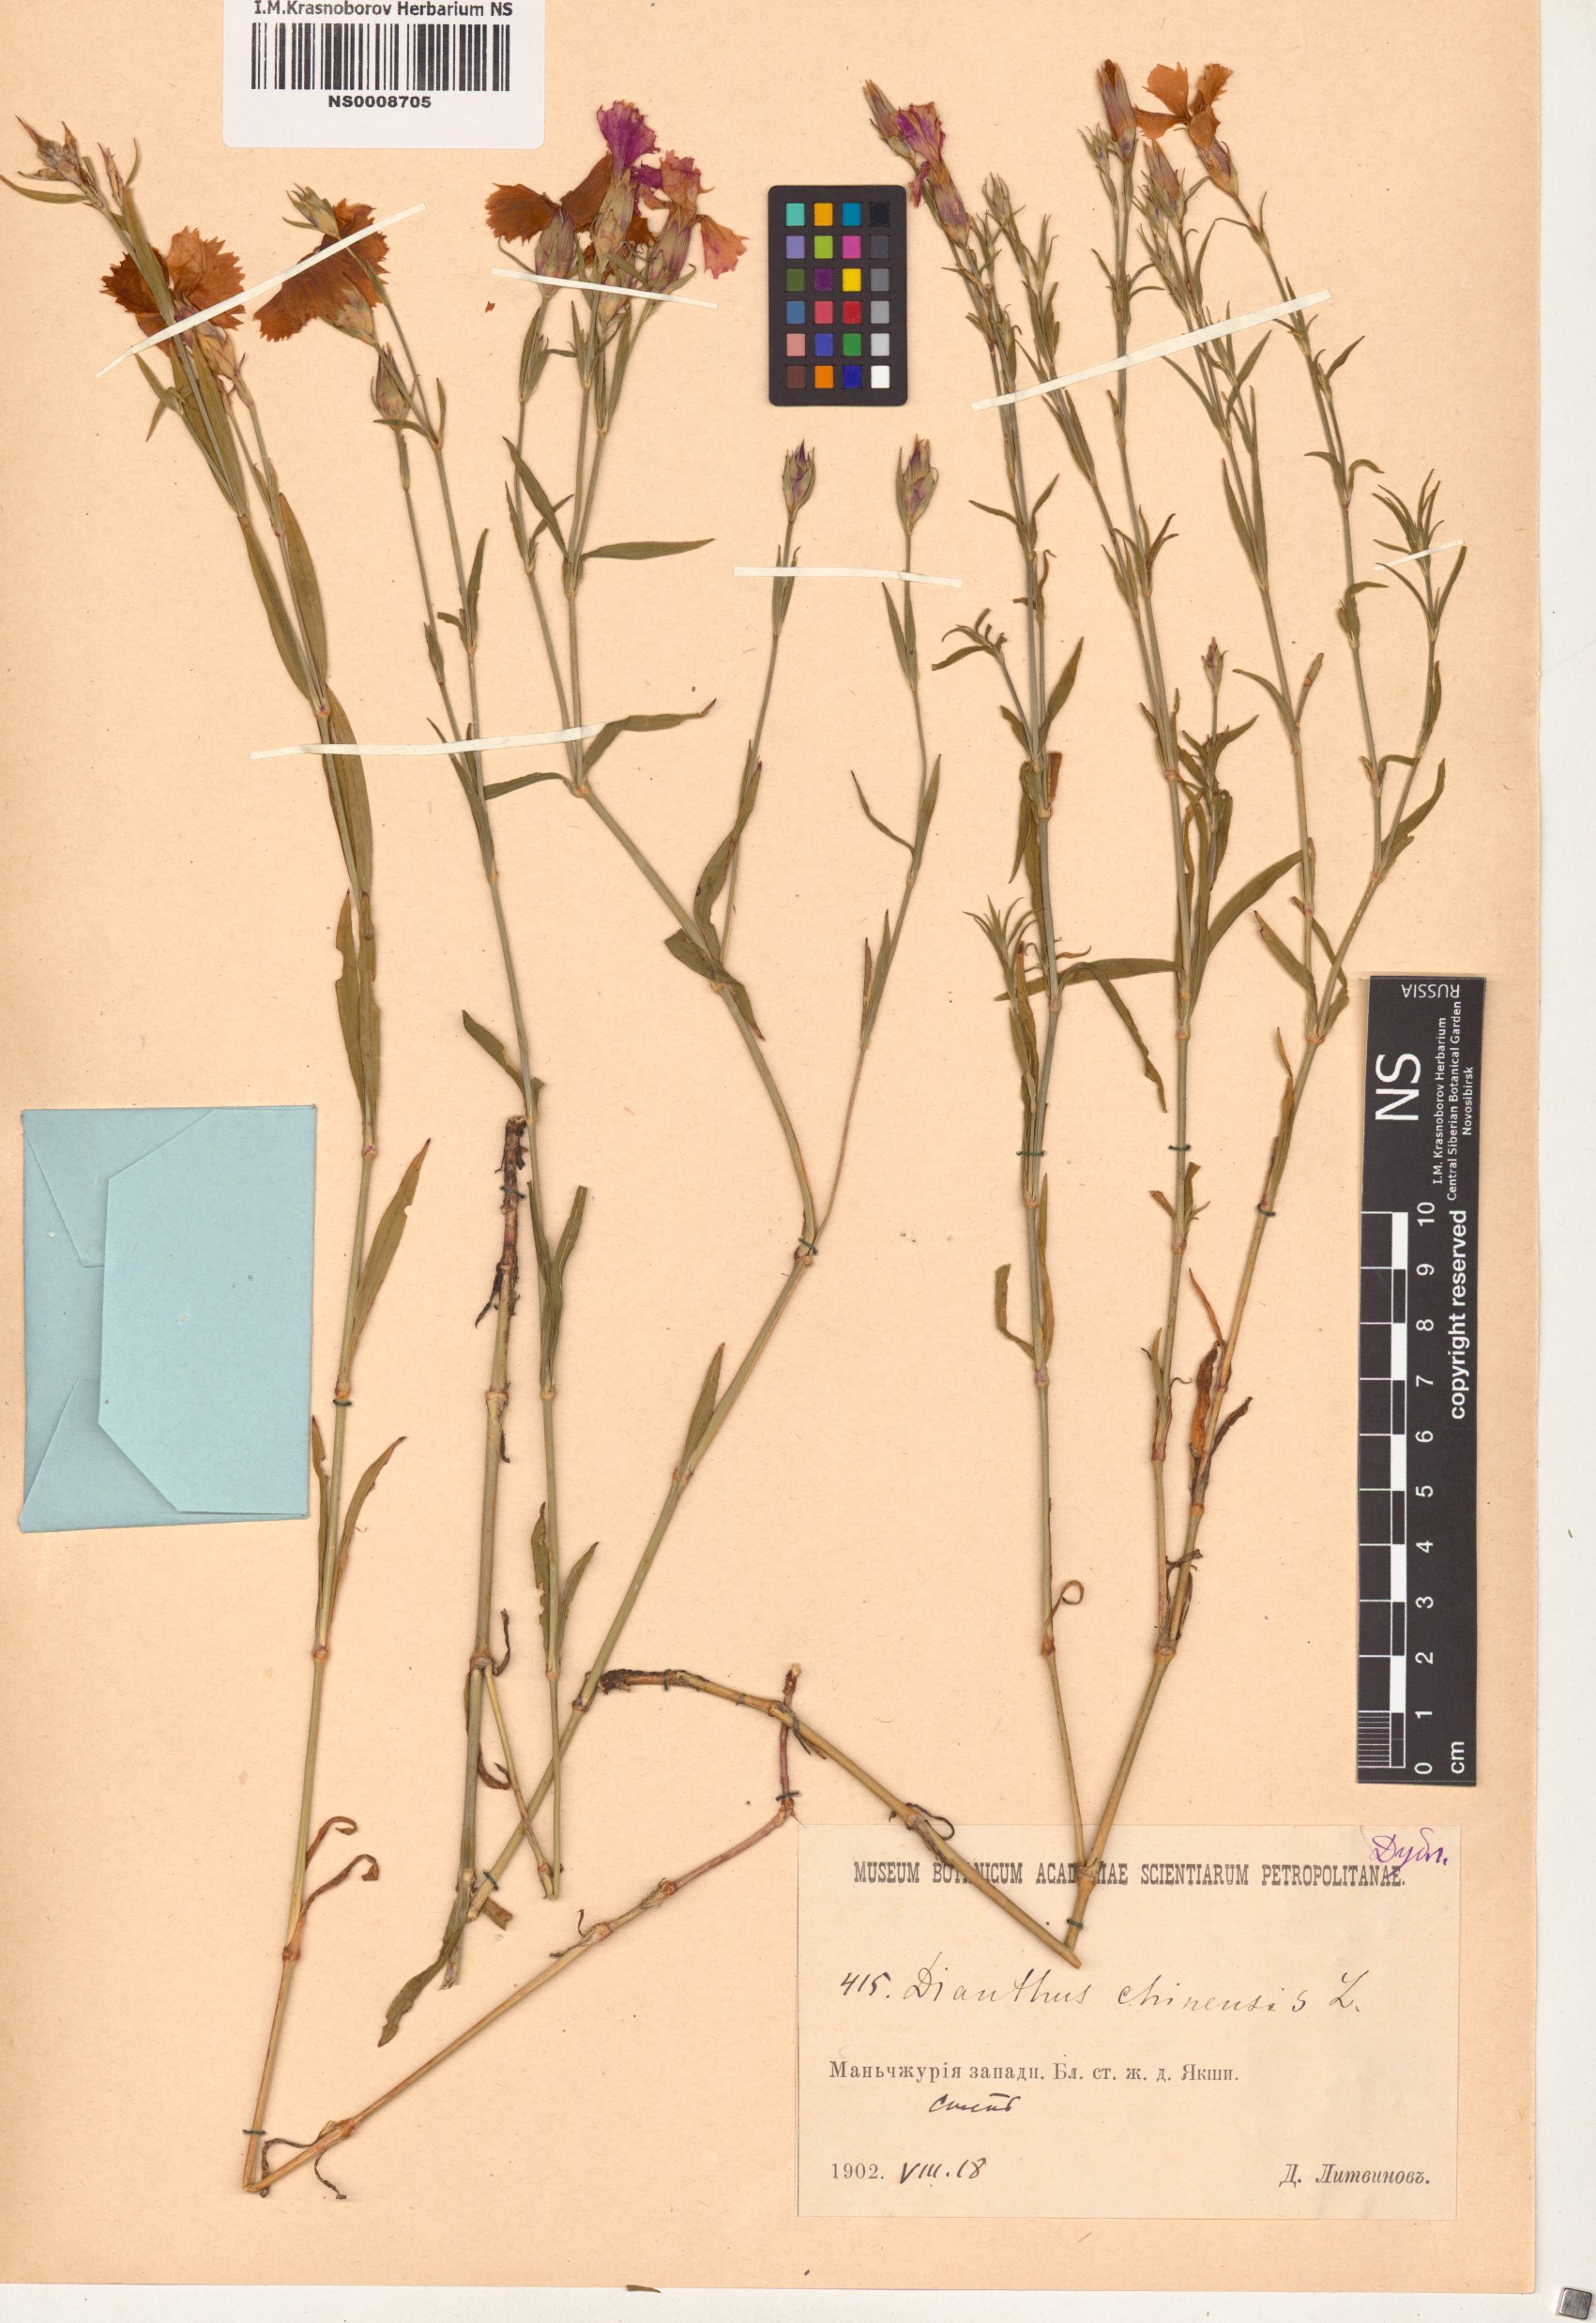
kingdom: Plantae
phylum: Tracheophyta
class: Magnoliopsida
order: Caryophyllales
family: Caryophyllaceae
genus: Dianthus
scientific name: Dianthus chinensis
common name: Rainbow pink
